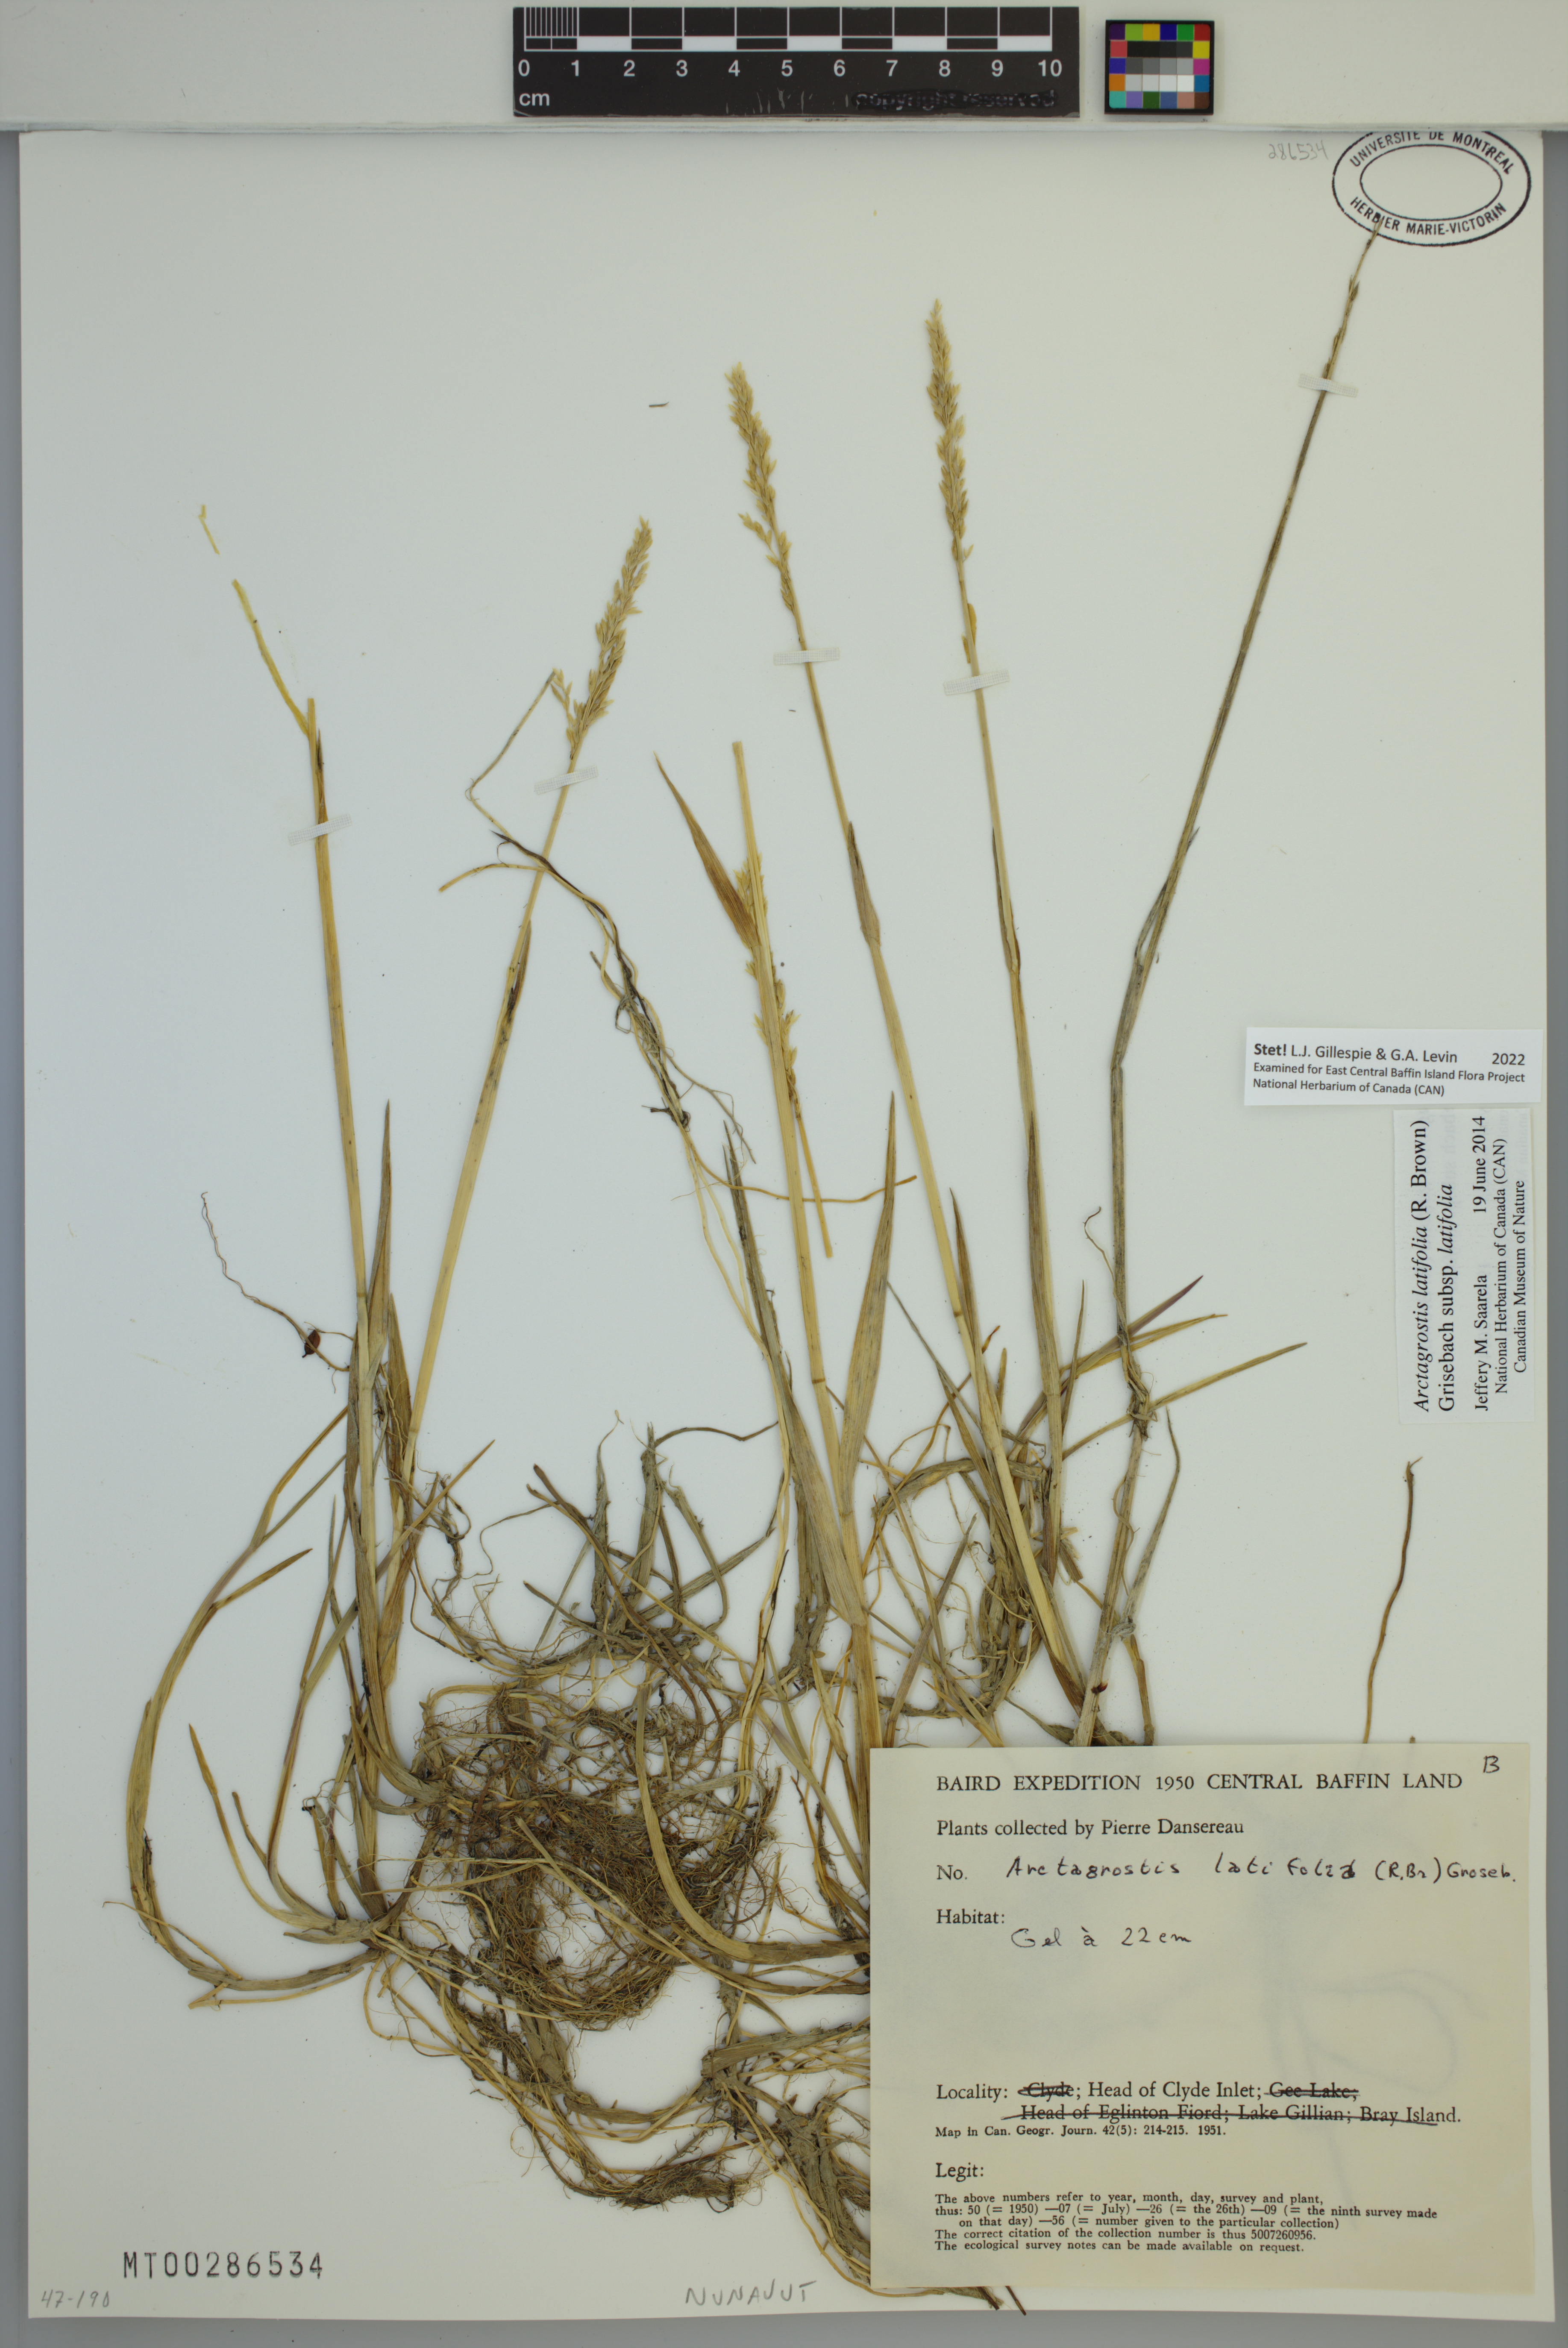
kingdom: Plantae
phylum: Tracheophyta
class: Liliopsida
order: Poales
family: Poaceae
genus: Arctagrostis
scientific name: Arctagrostis latifolia
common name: Arctic grass
